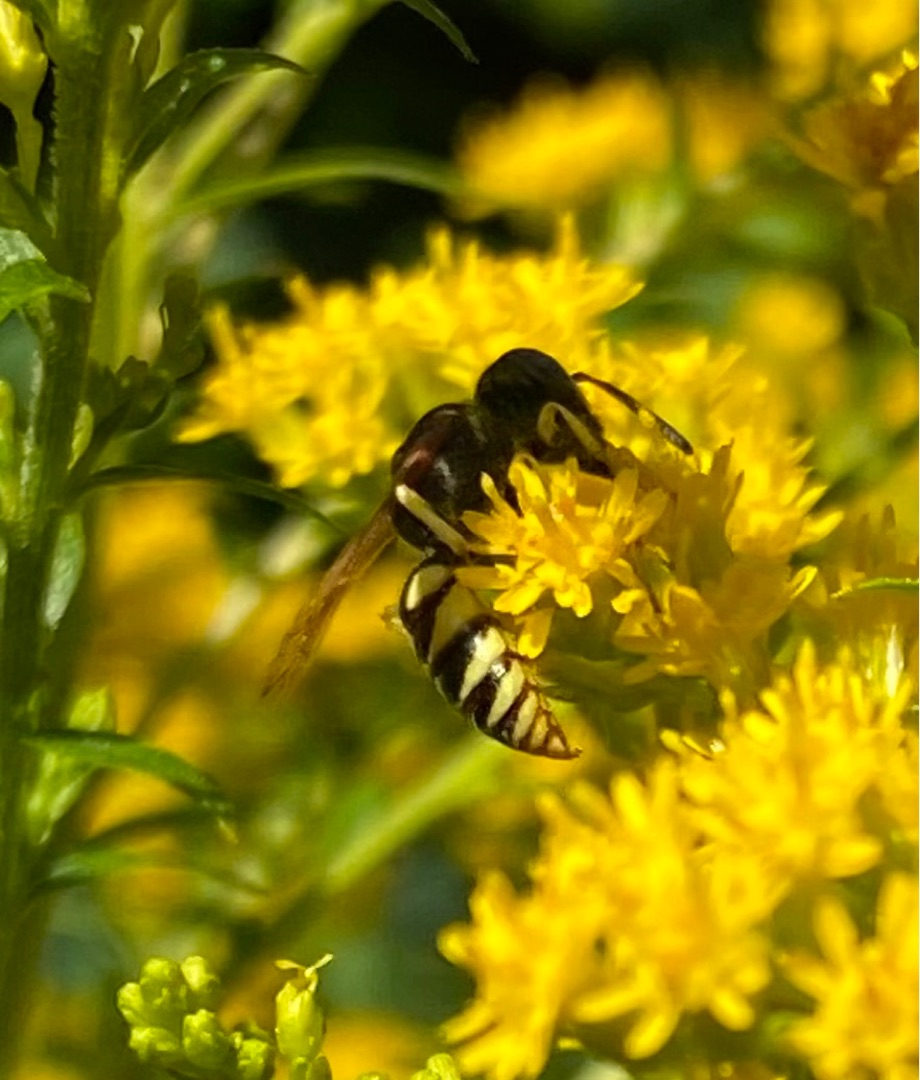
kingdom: Animalia
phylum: Arthropoda
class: Insecta
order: Hymenoptera
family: Crabronidae
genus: Philanthus
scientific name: Philanthus triangulum
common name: Biulv
